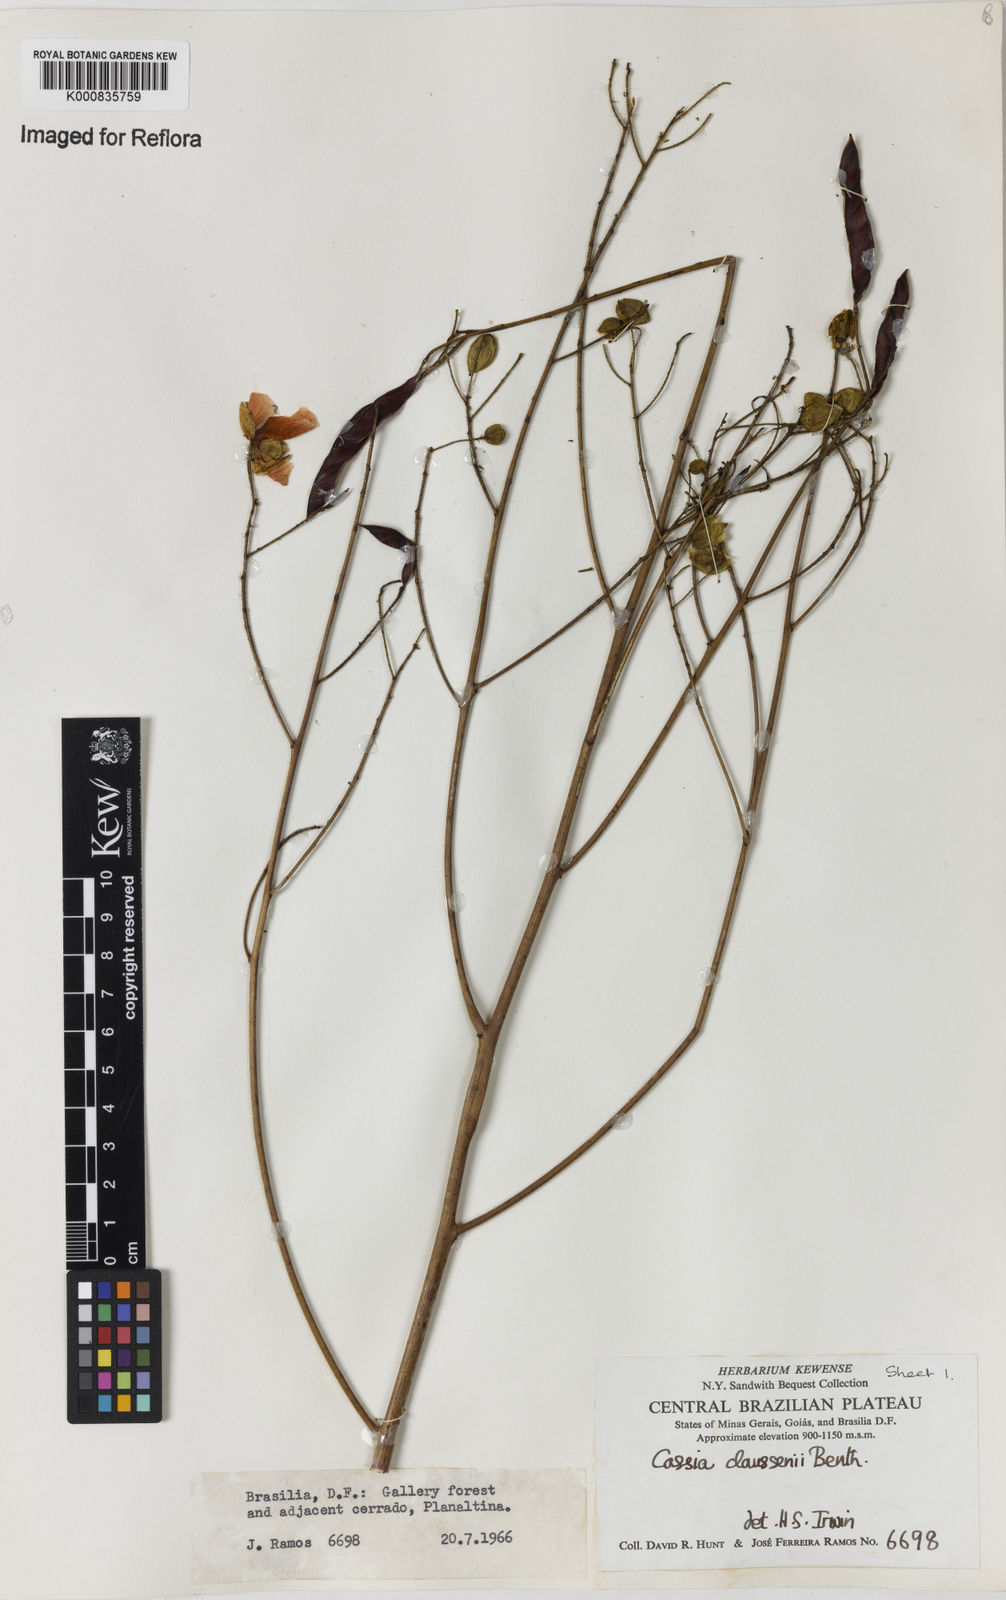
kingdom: Plantae
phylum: Tracheophyta
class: Magnoliopsida
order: Fabales
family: Fabaceae
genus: Chamaecrista
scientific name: Chamaecrista claussenii
